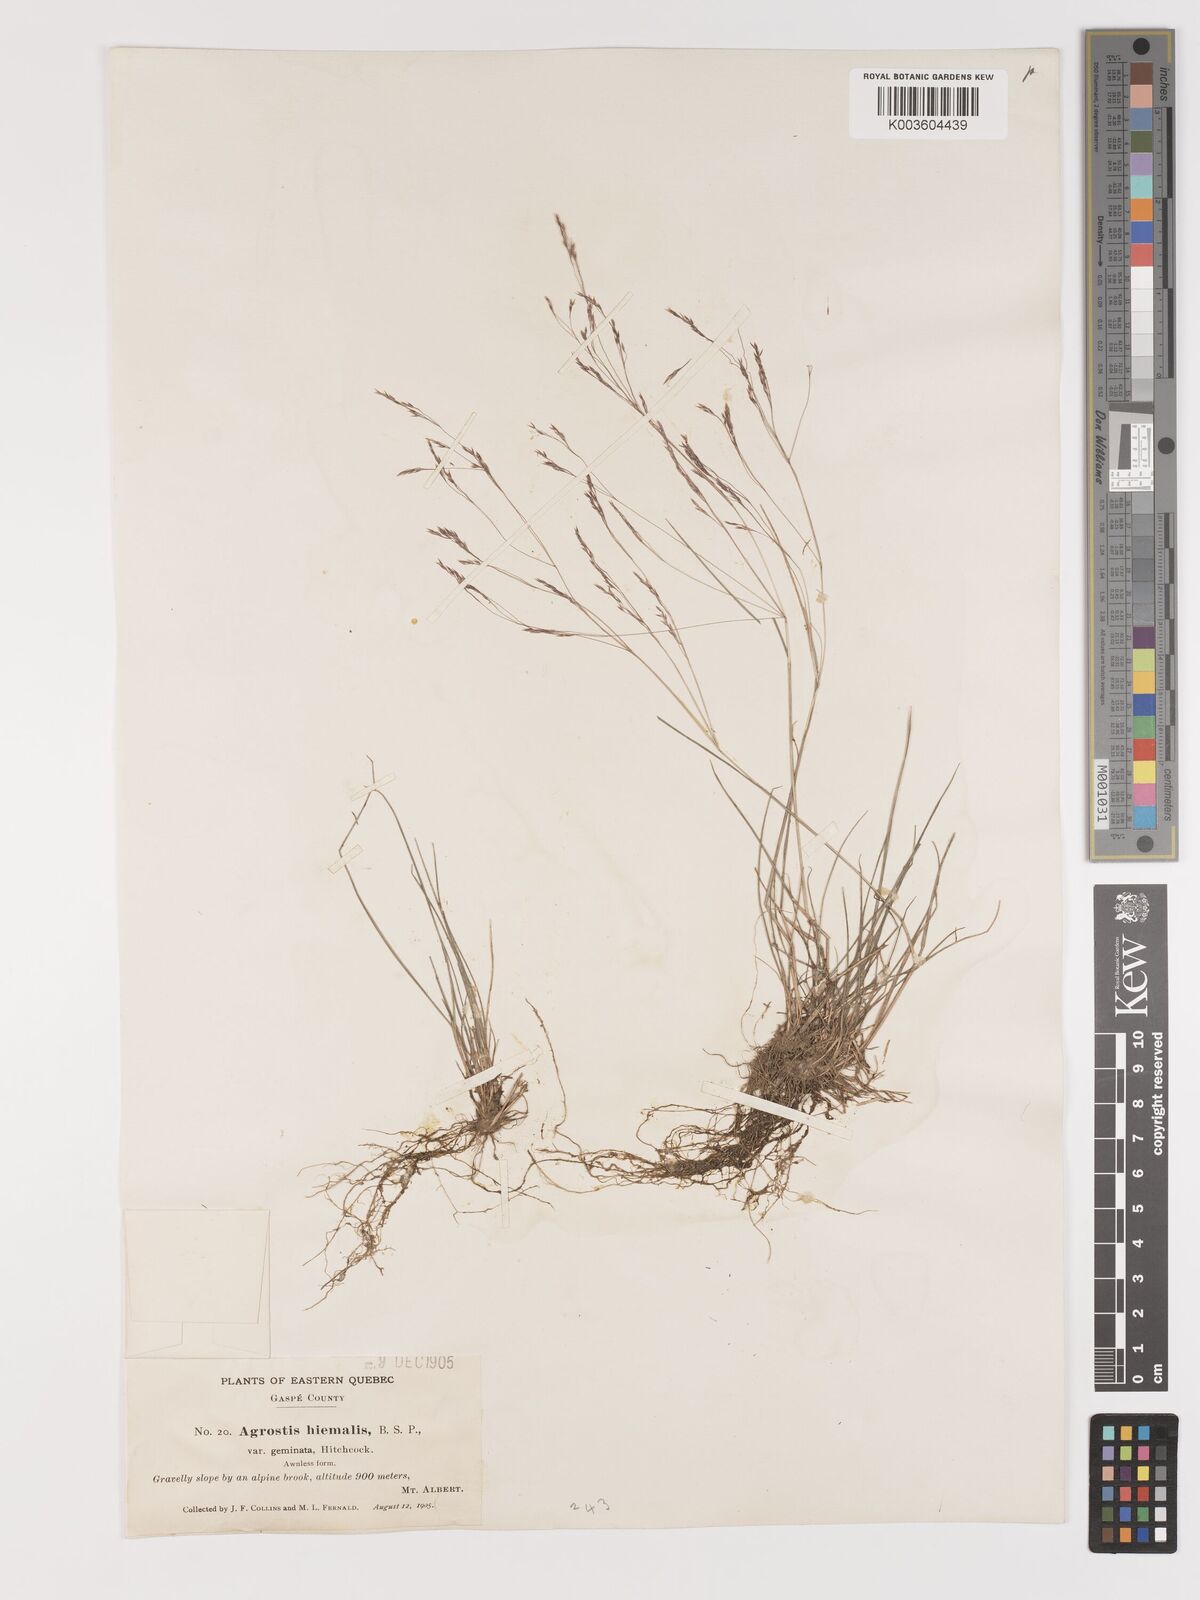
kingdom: Plantae
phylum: Tracheophyta
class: Liliopsida
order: Poales
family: Poaceae
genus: Agrostis
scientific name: Agrostis hyemalis
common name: Small bent
